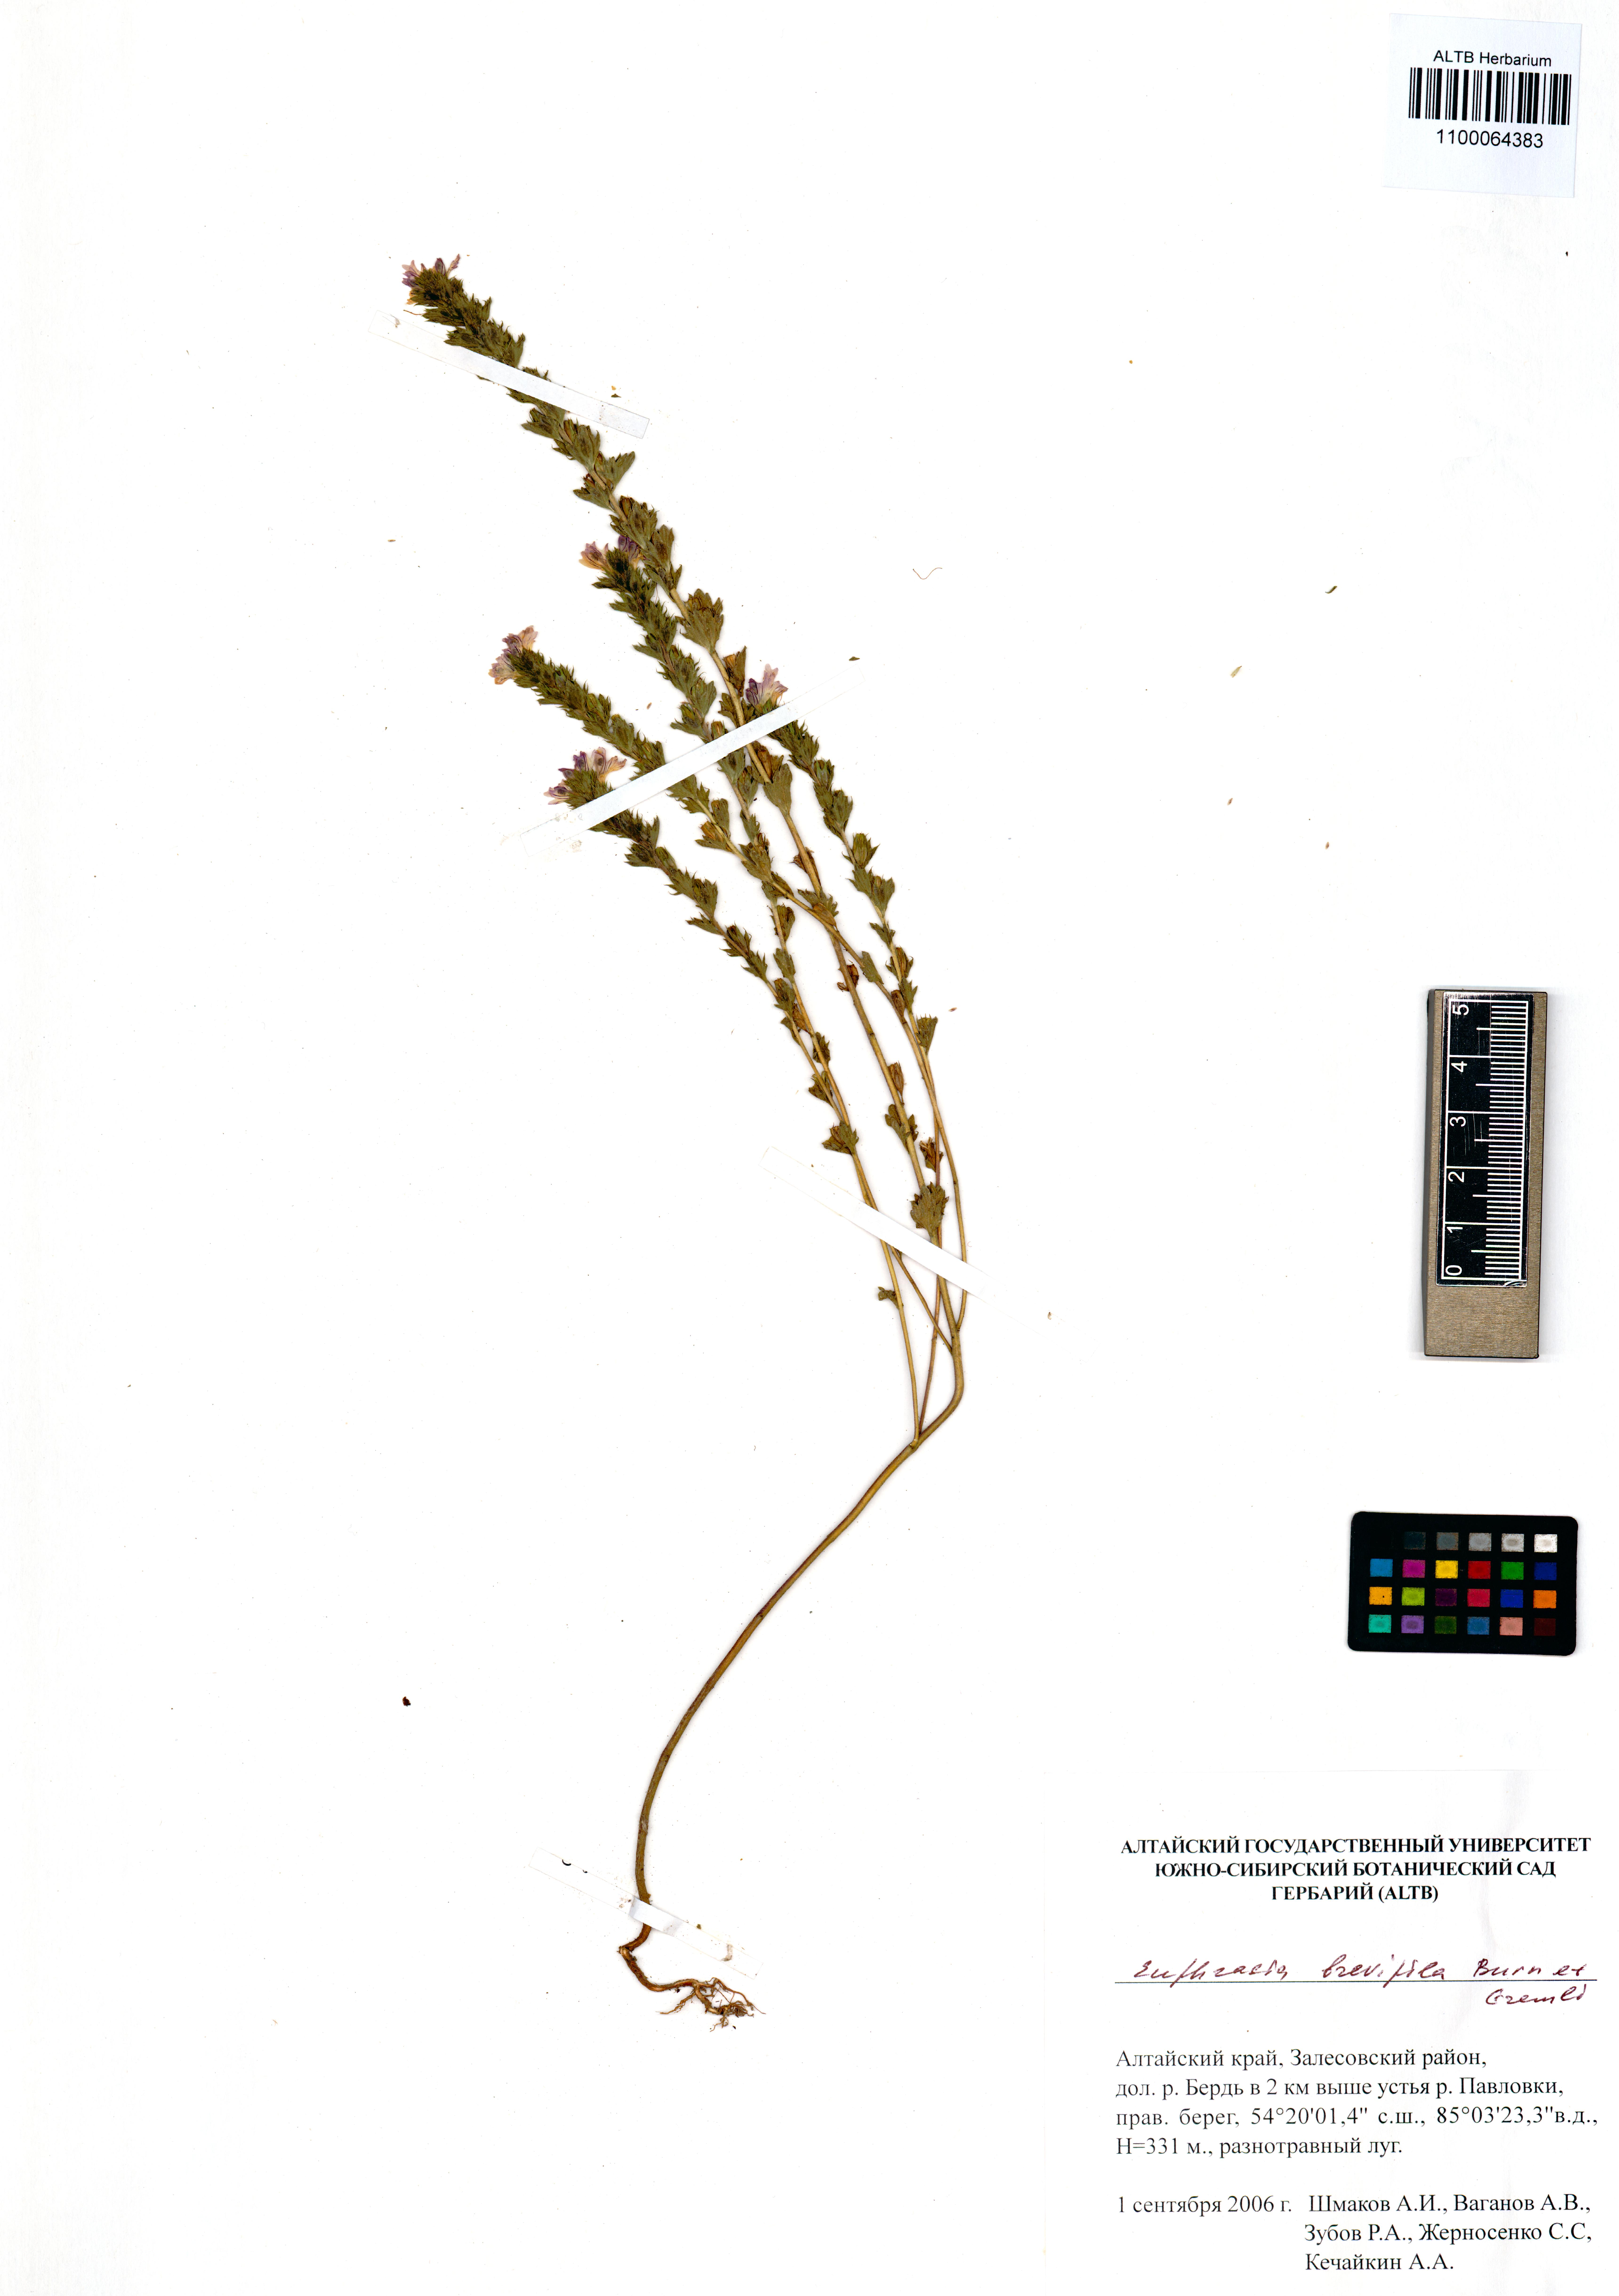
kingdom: Plantae
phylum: Tracheophyta
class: Magnoliopsida
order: Lamiales
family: Orobanchaceae
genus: Euphrasia
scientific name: Euphrasia vernalis
